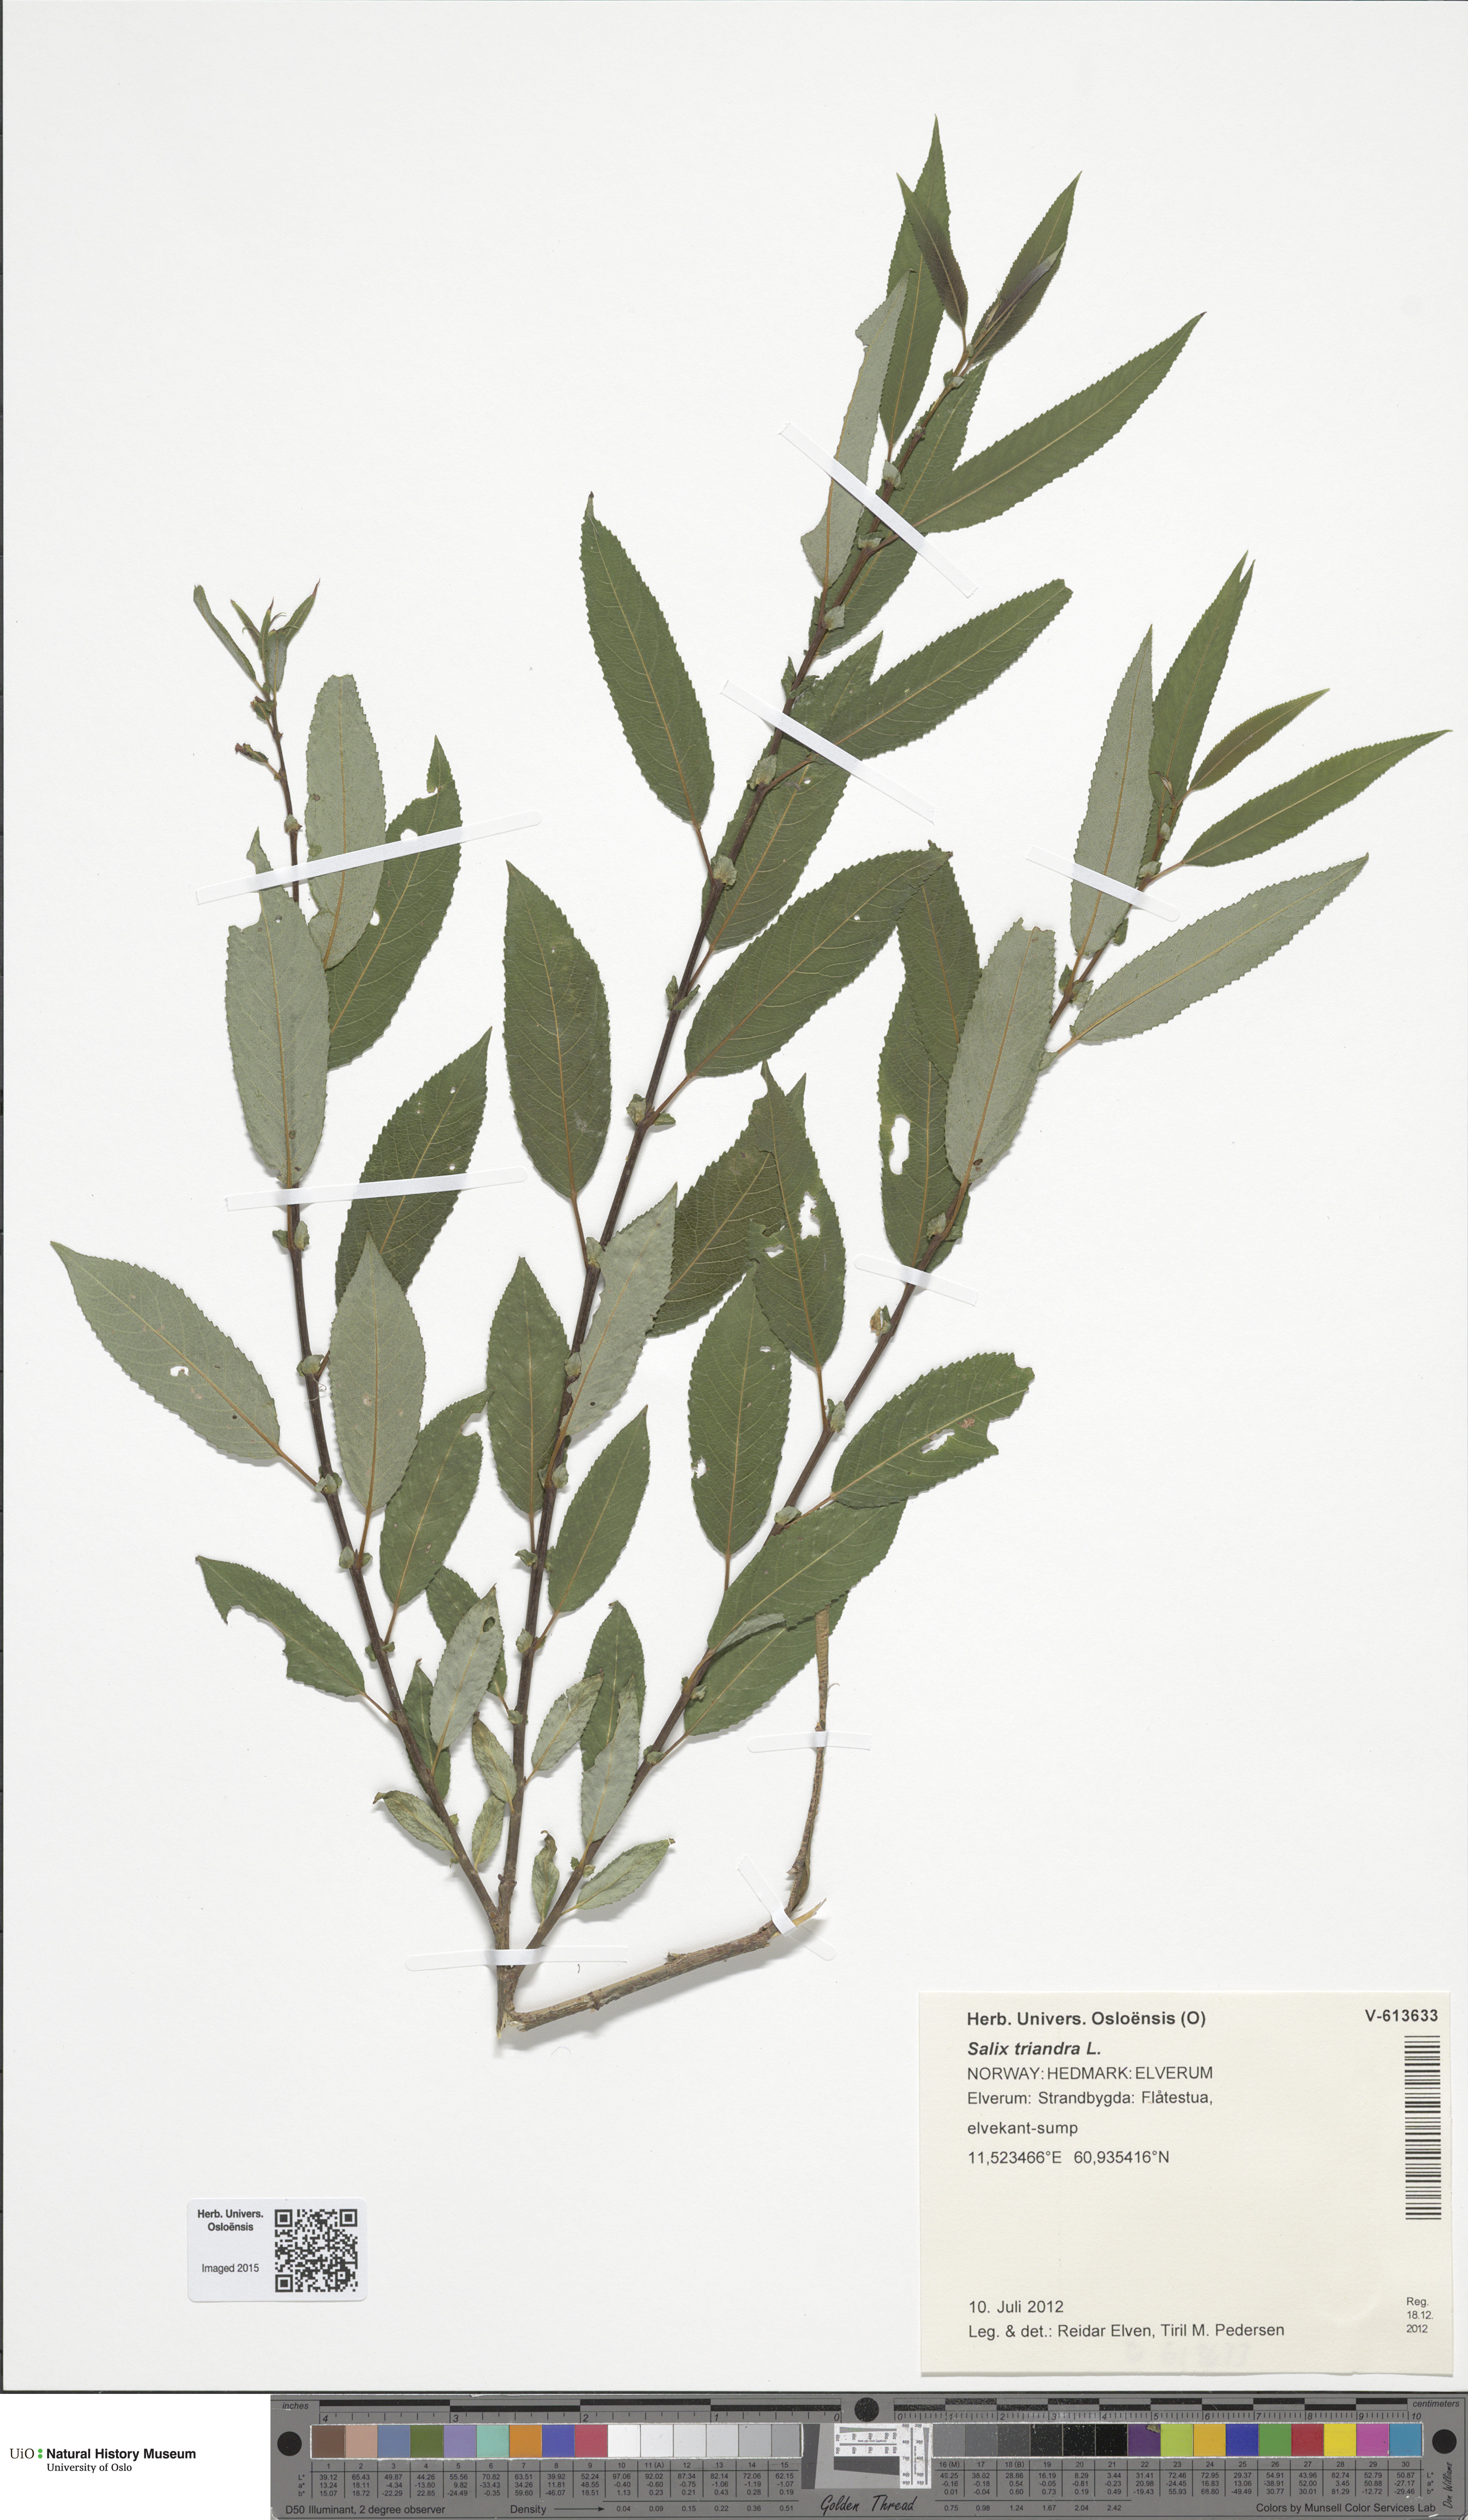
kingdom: Plantae
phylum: Tracheophyta
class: Magnoliopsida
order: Malpighiales
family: Salicaceae
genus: Salix
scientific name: Salix triandra
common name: Almond willow
